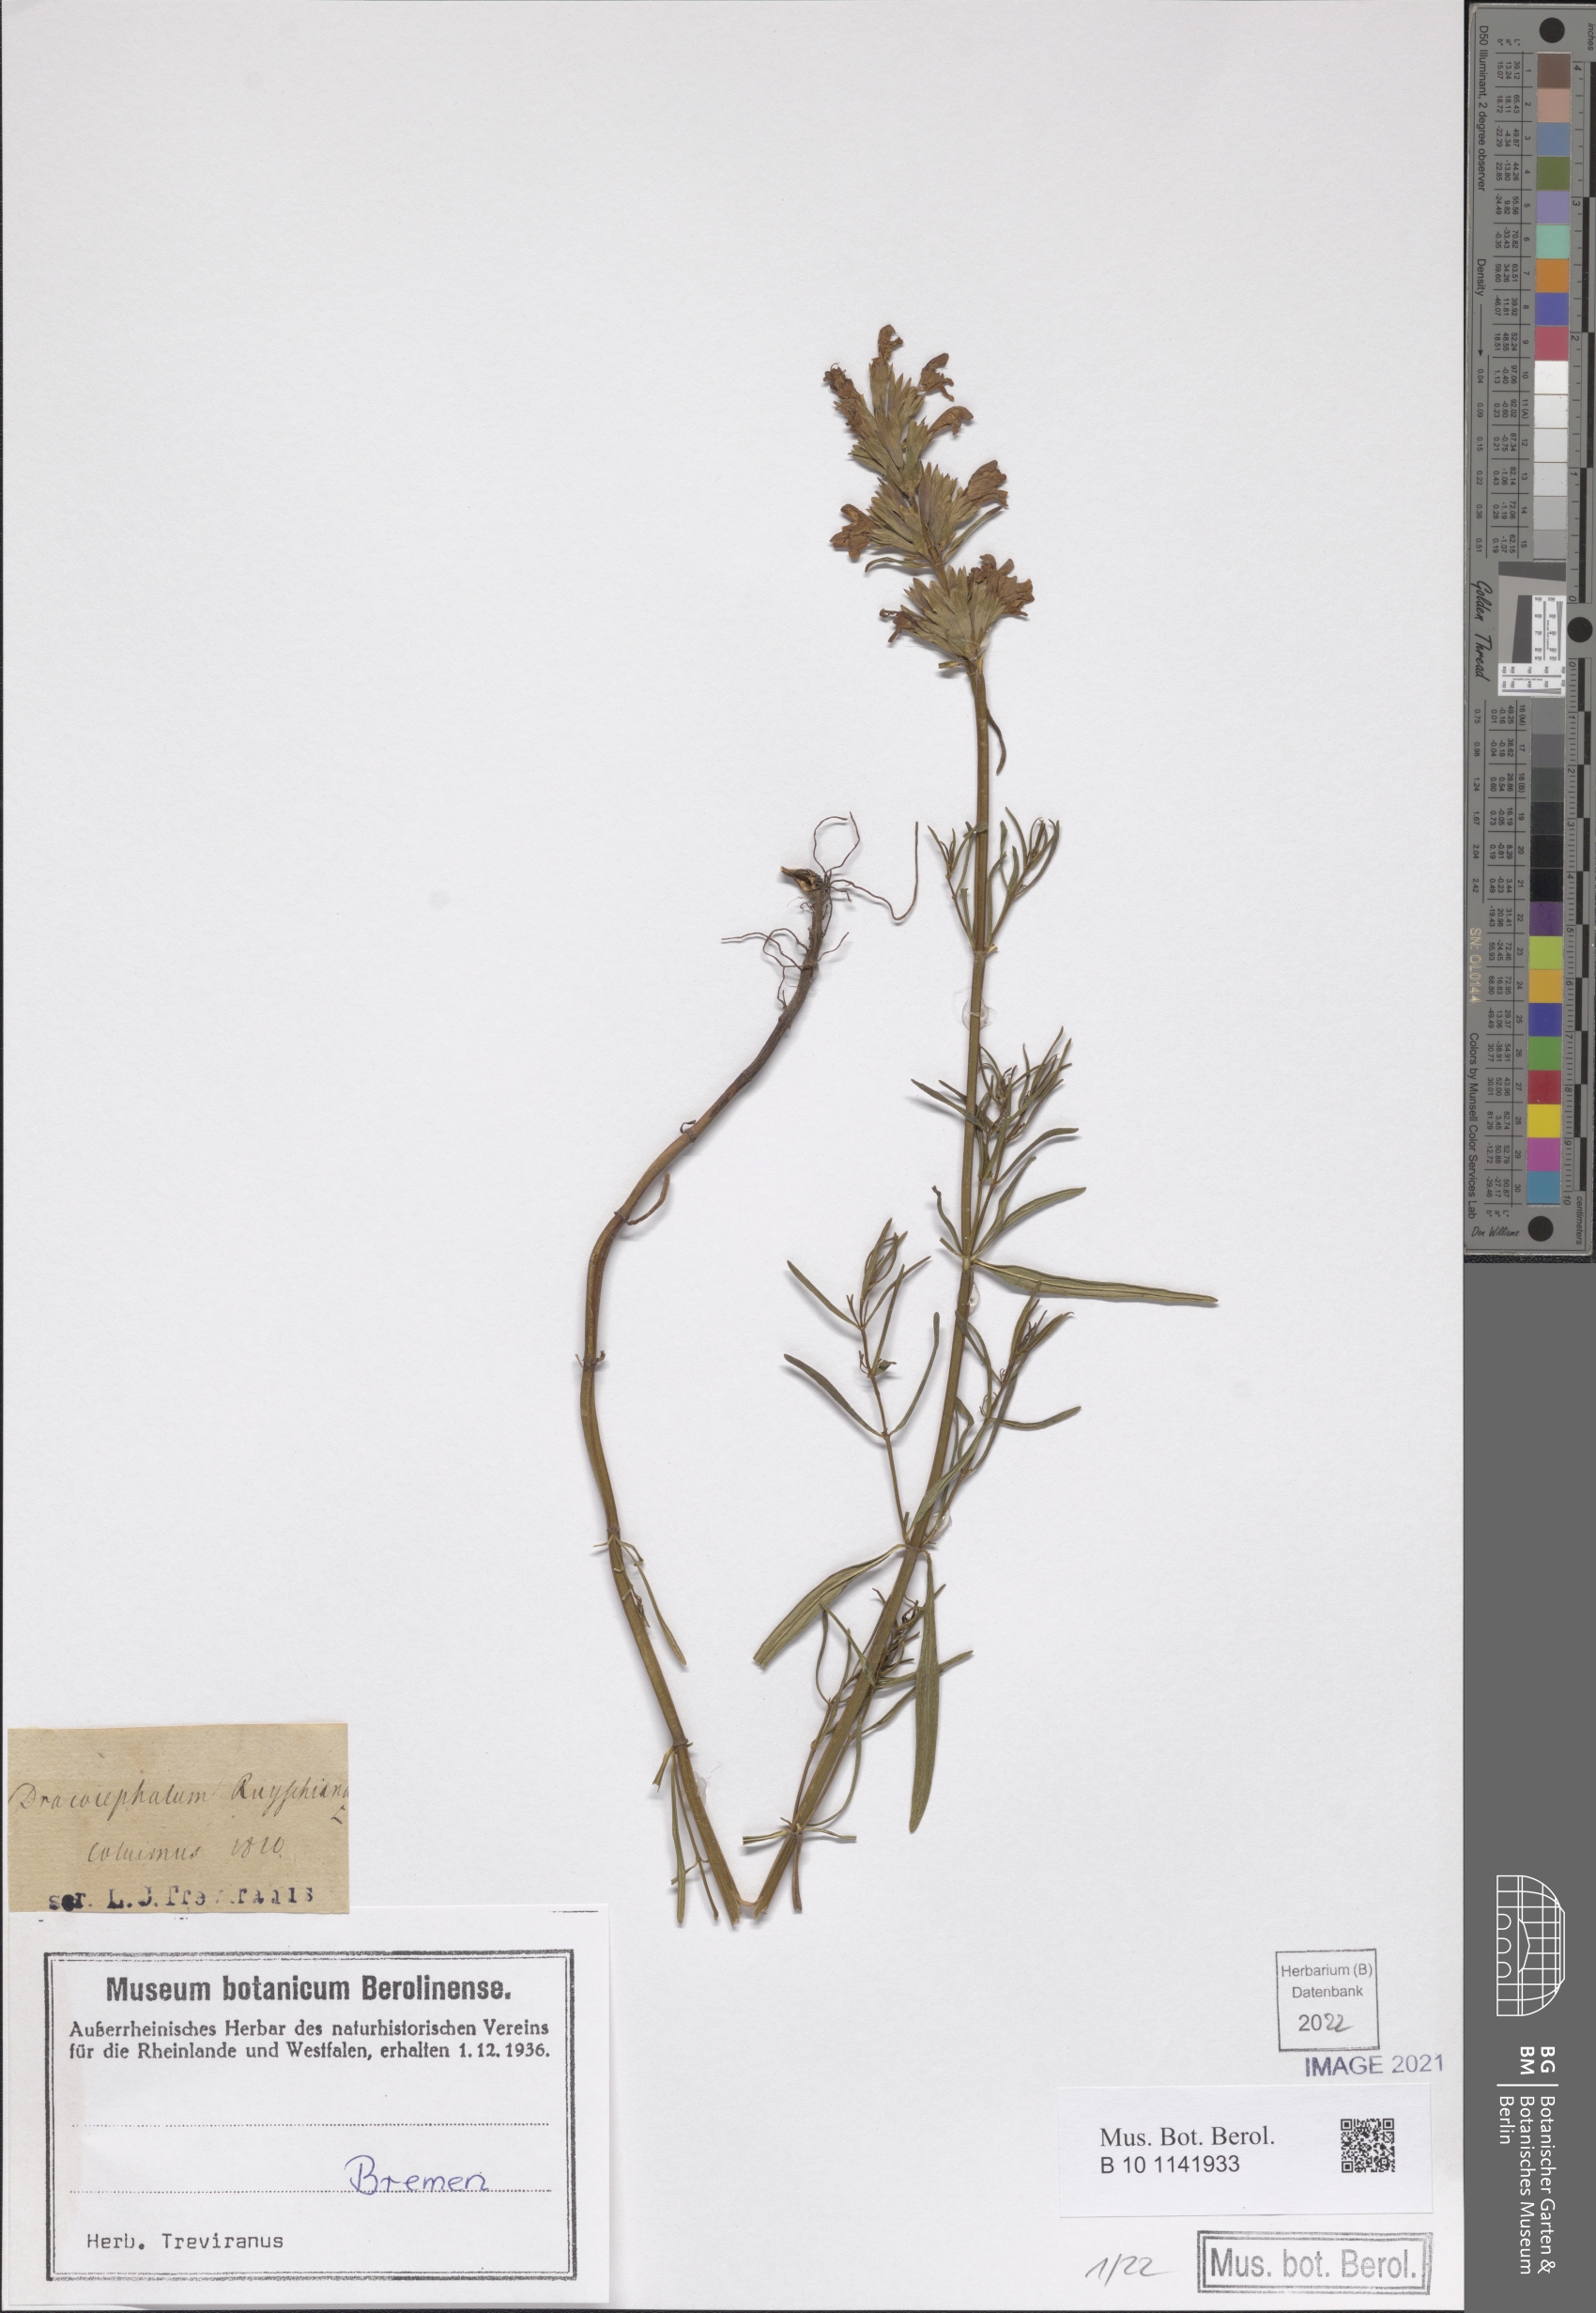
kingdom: Plantae
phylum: Tracheophyta
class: Magnoliopsida
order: Lamiales
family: Lamiaceae
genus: Dracocephalum
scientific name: Dracocephalum ruyschiana
